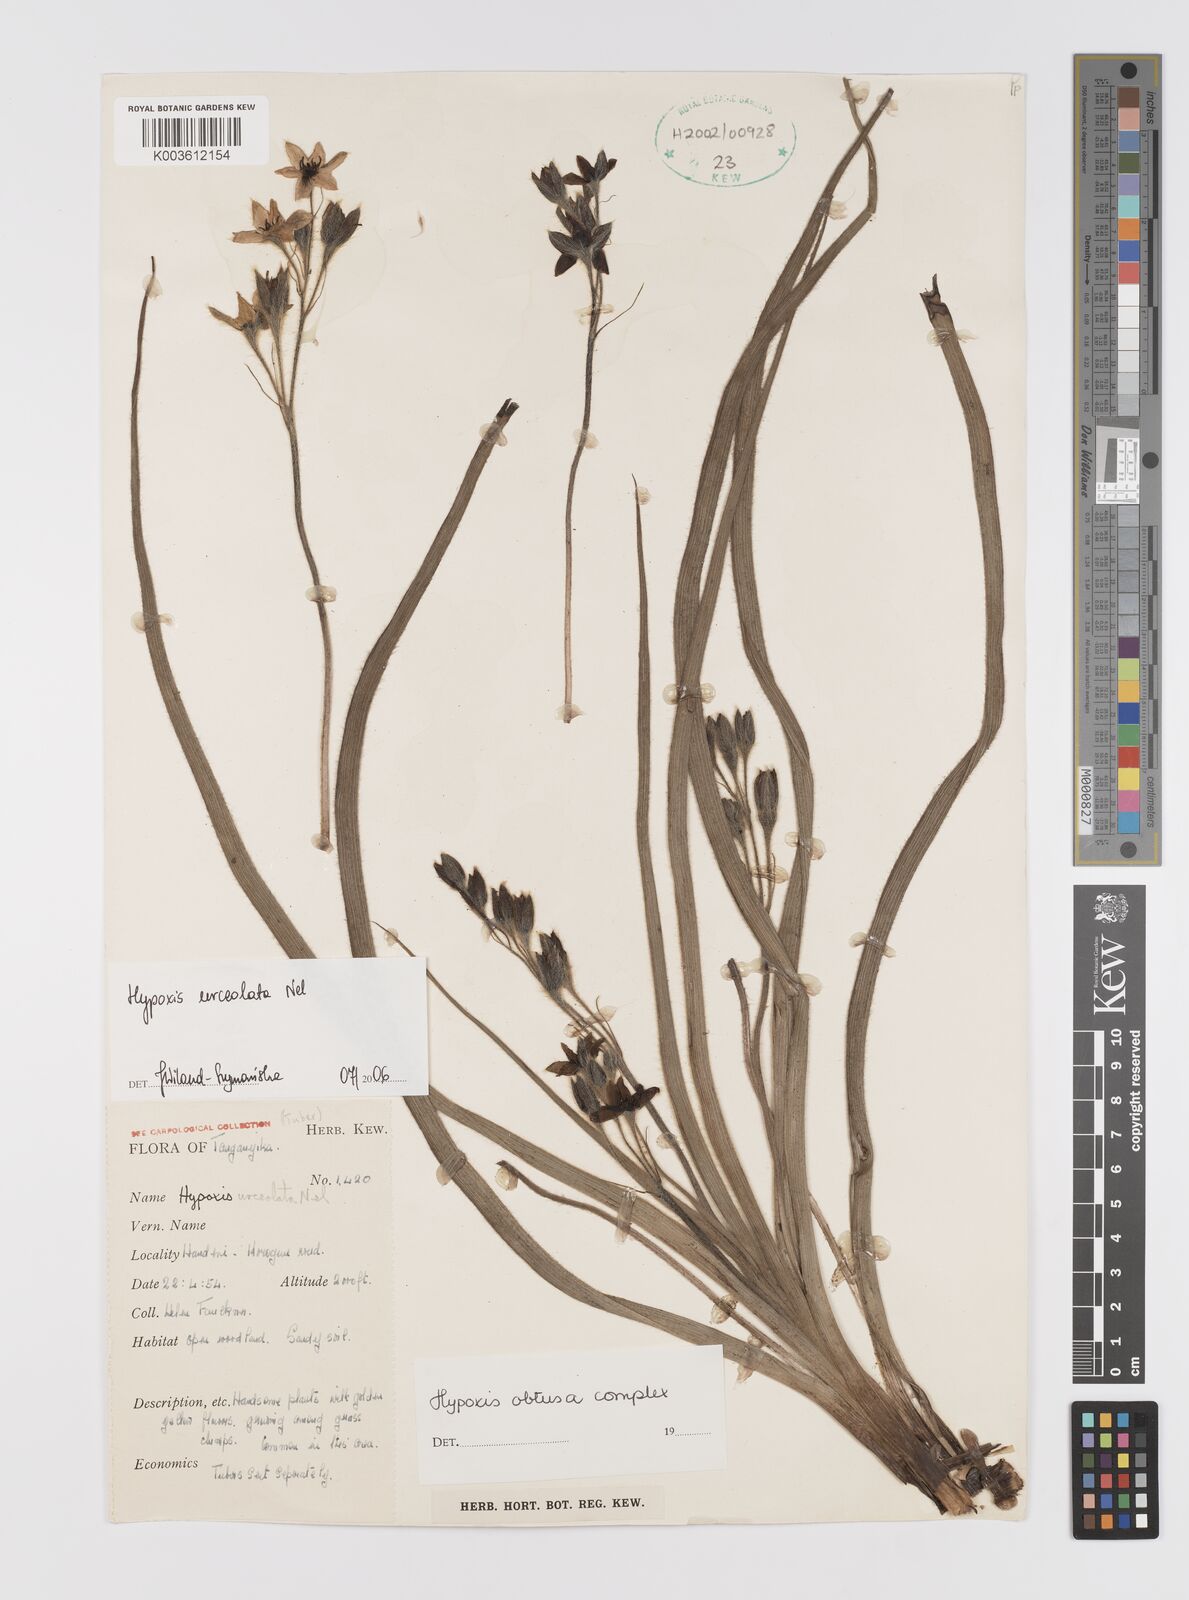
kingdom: Plantae
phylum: Tracheophyta
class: Liliopsida
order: Asparagales
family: Hypoxidaceae
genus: Hypoxis
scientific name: Hypoxis urceolata
